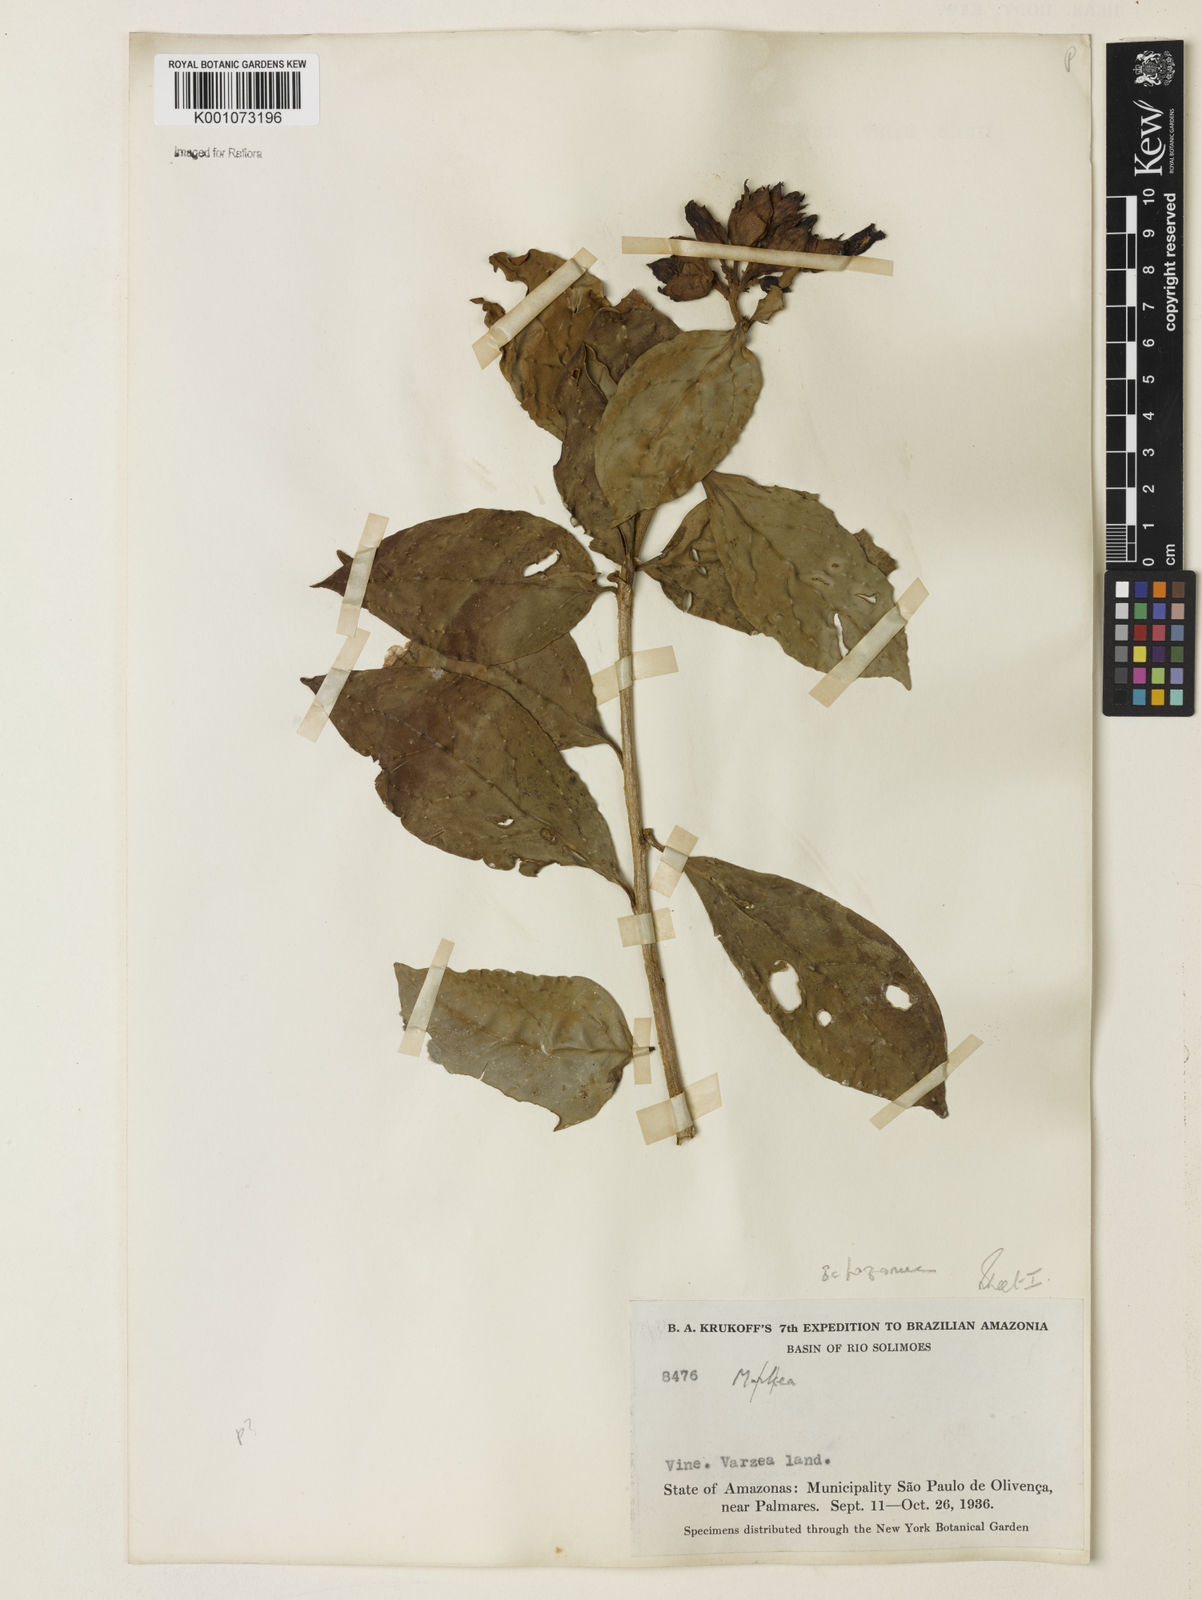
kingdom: Plantae
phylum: Tracheophyta
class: Magnoliopsida
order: Solanales
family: Solanaceae
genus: Juanulloa
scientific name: Juanulloa parasitica
